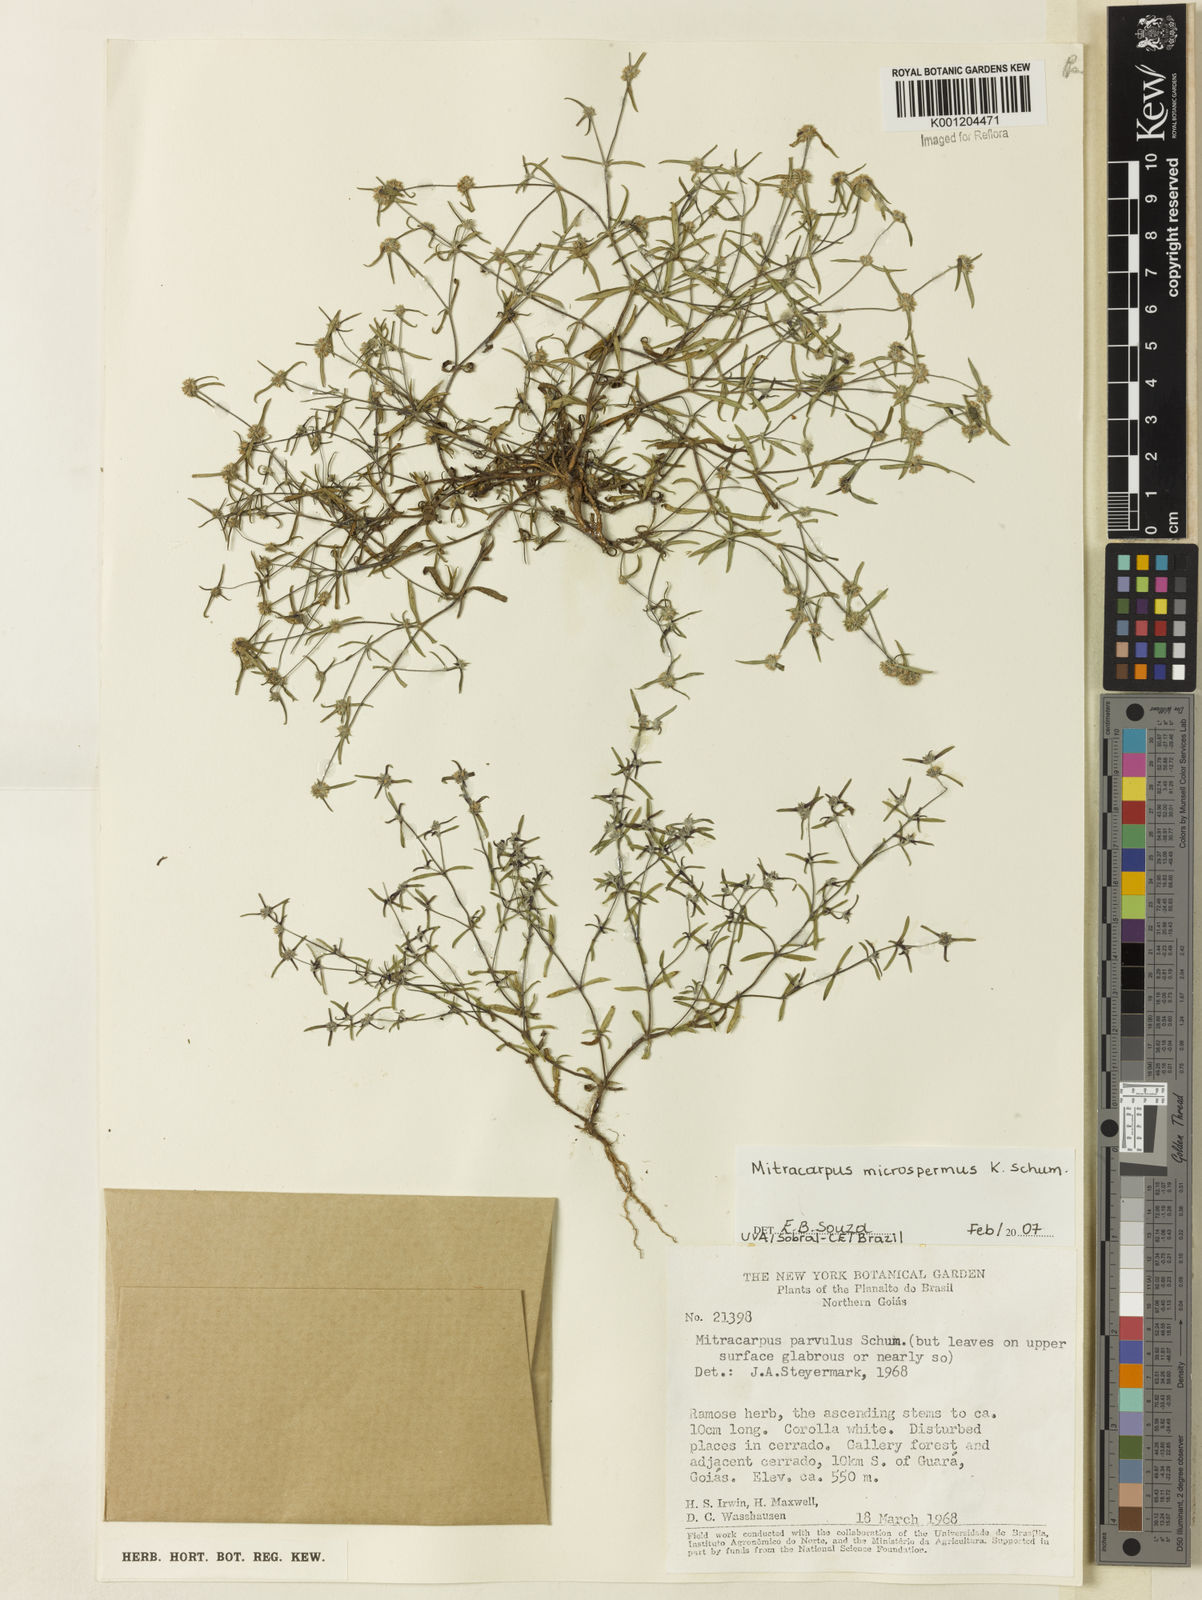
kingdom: Plantae
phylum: Tracheophyta
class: Magnoliopsida
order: Gentianales
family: Rubiaceae
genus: Mitracarpus
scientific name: Mitracarpus microspermus
